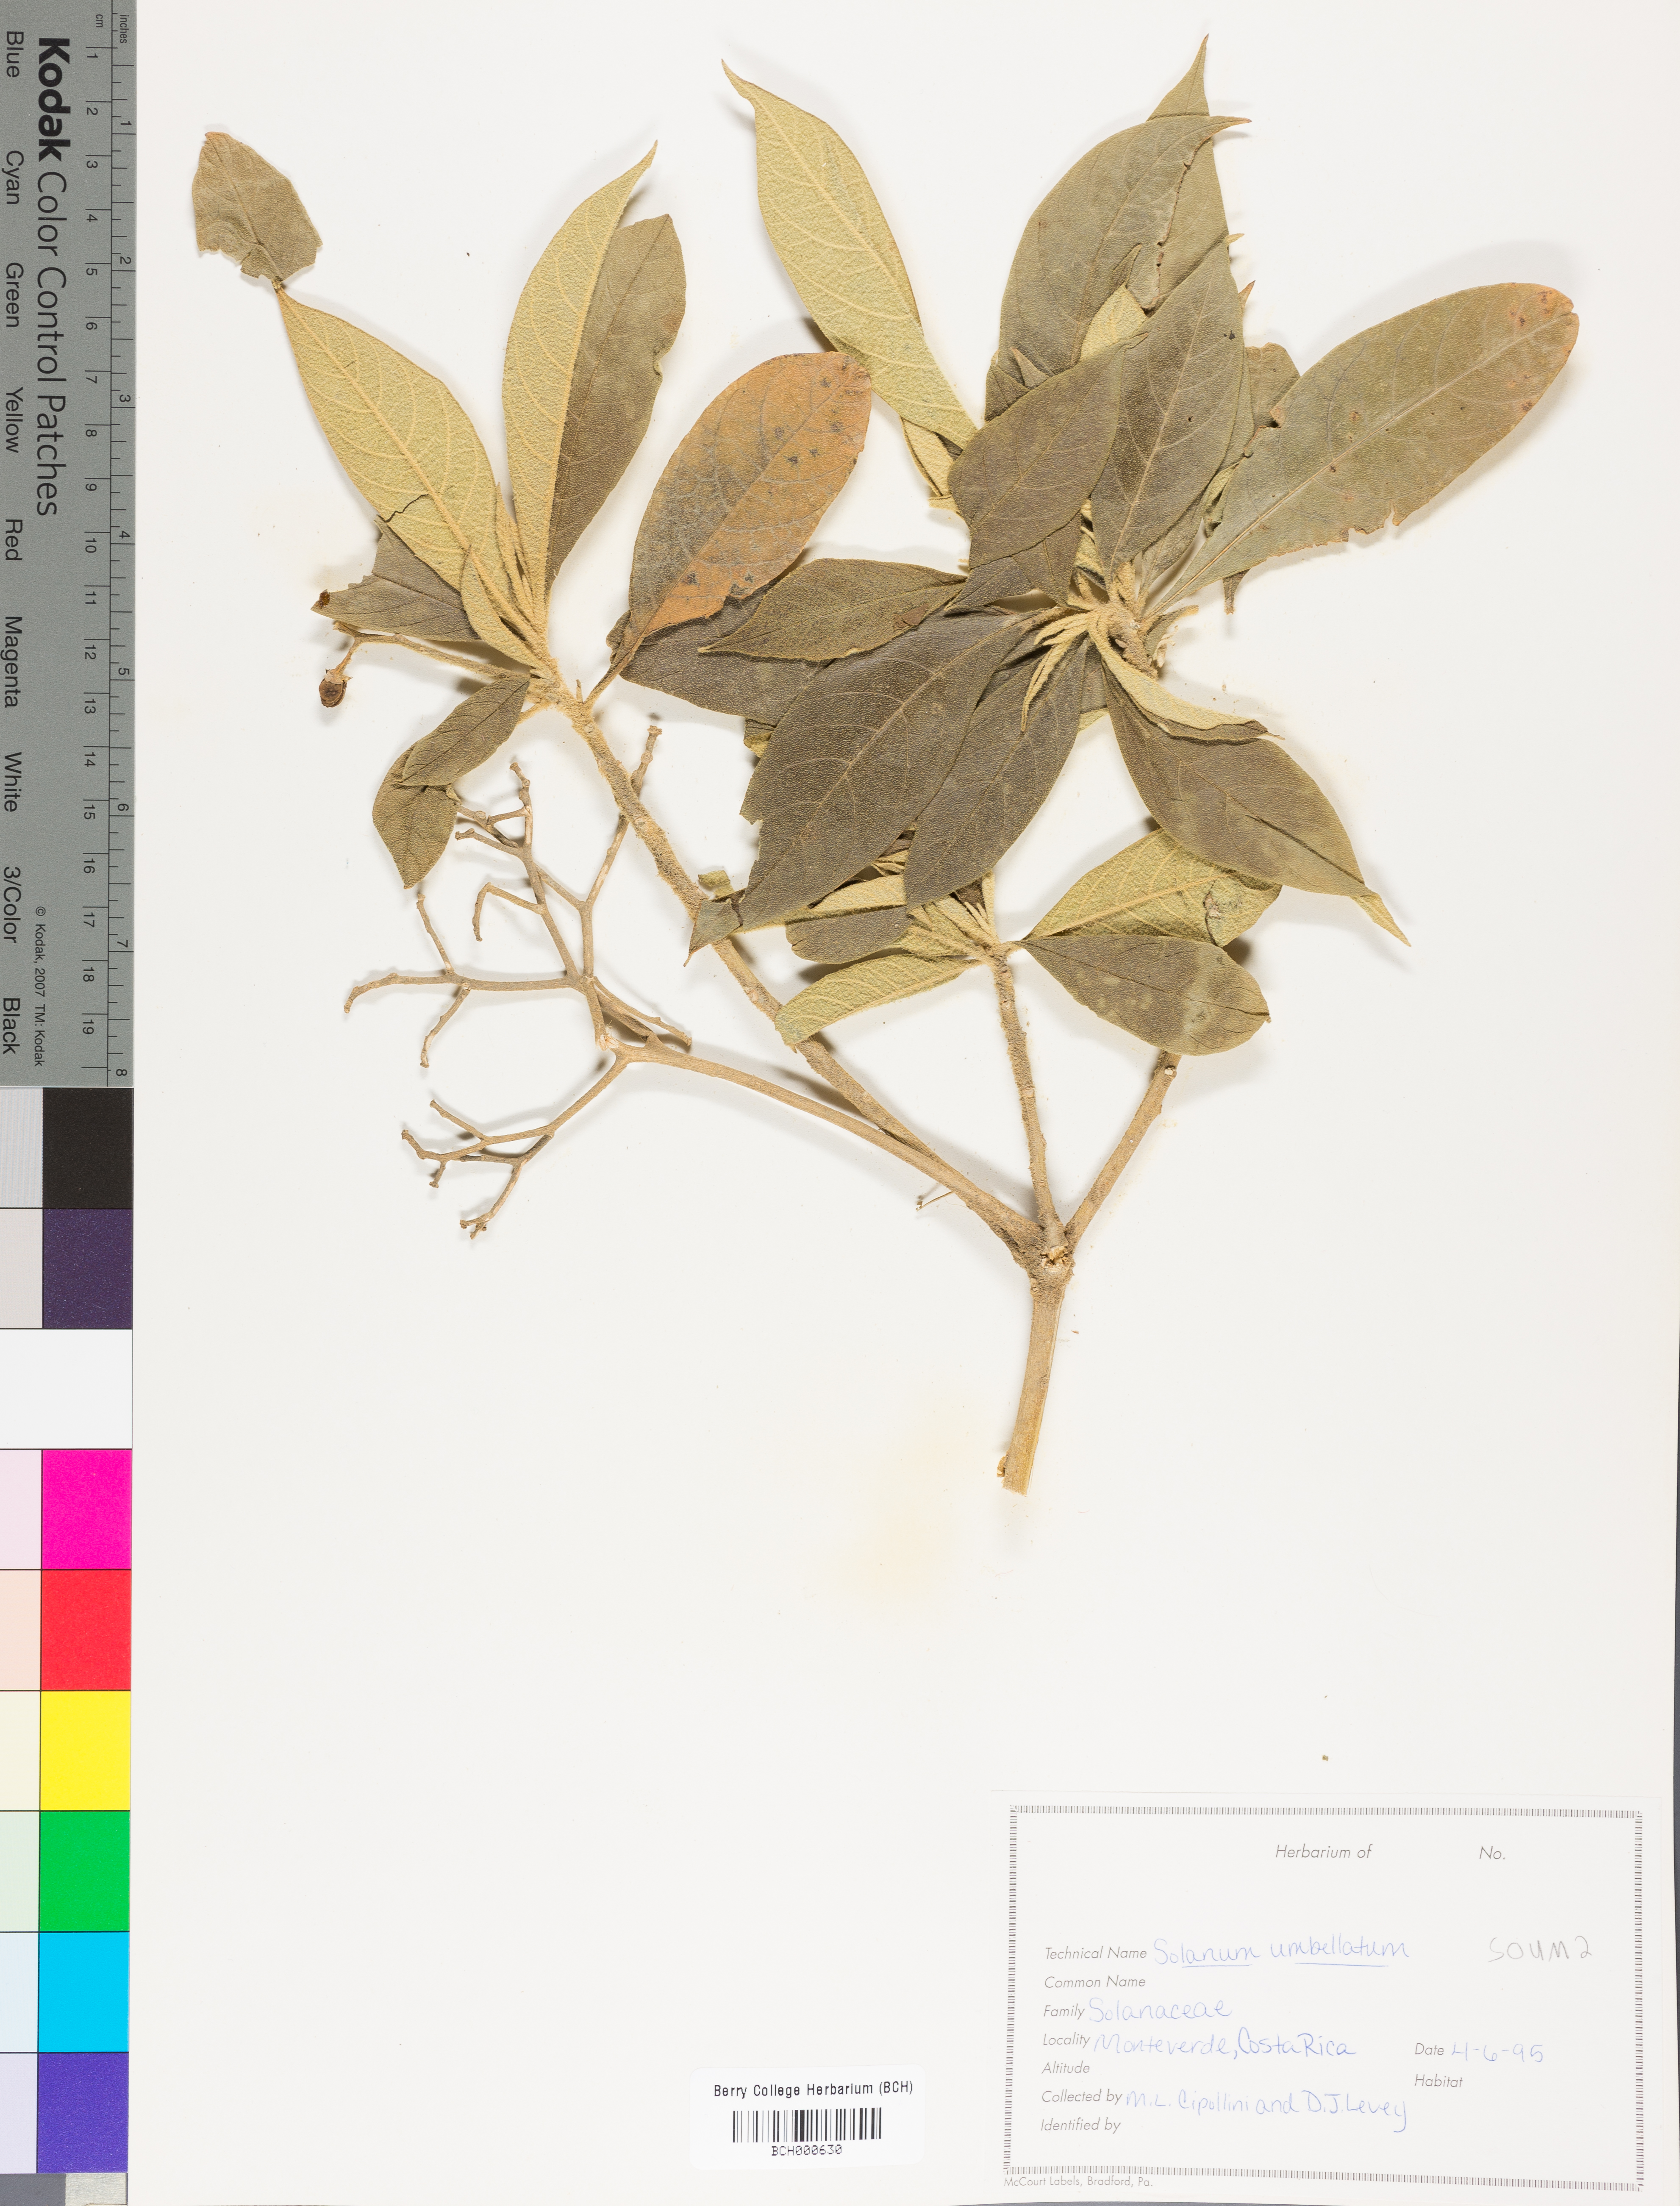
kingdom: Plantae
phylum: Tracheophyta
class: Magnoliopsida
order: Solanales
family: Solanaceae
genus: Lycianthes
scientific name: Lycianthes pauciflora
